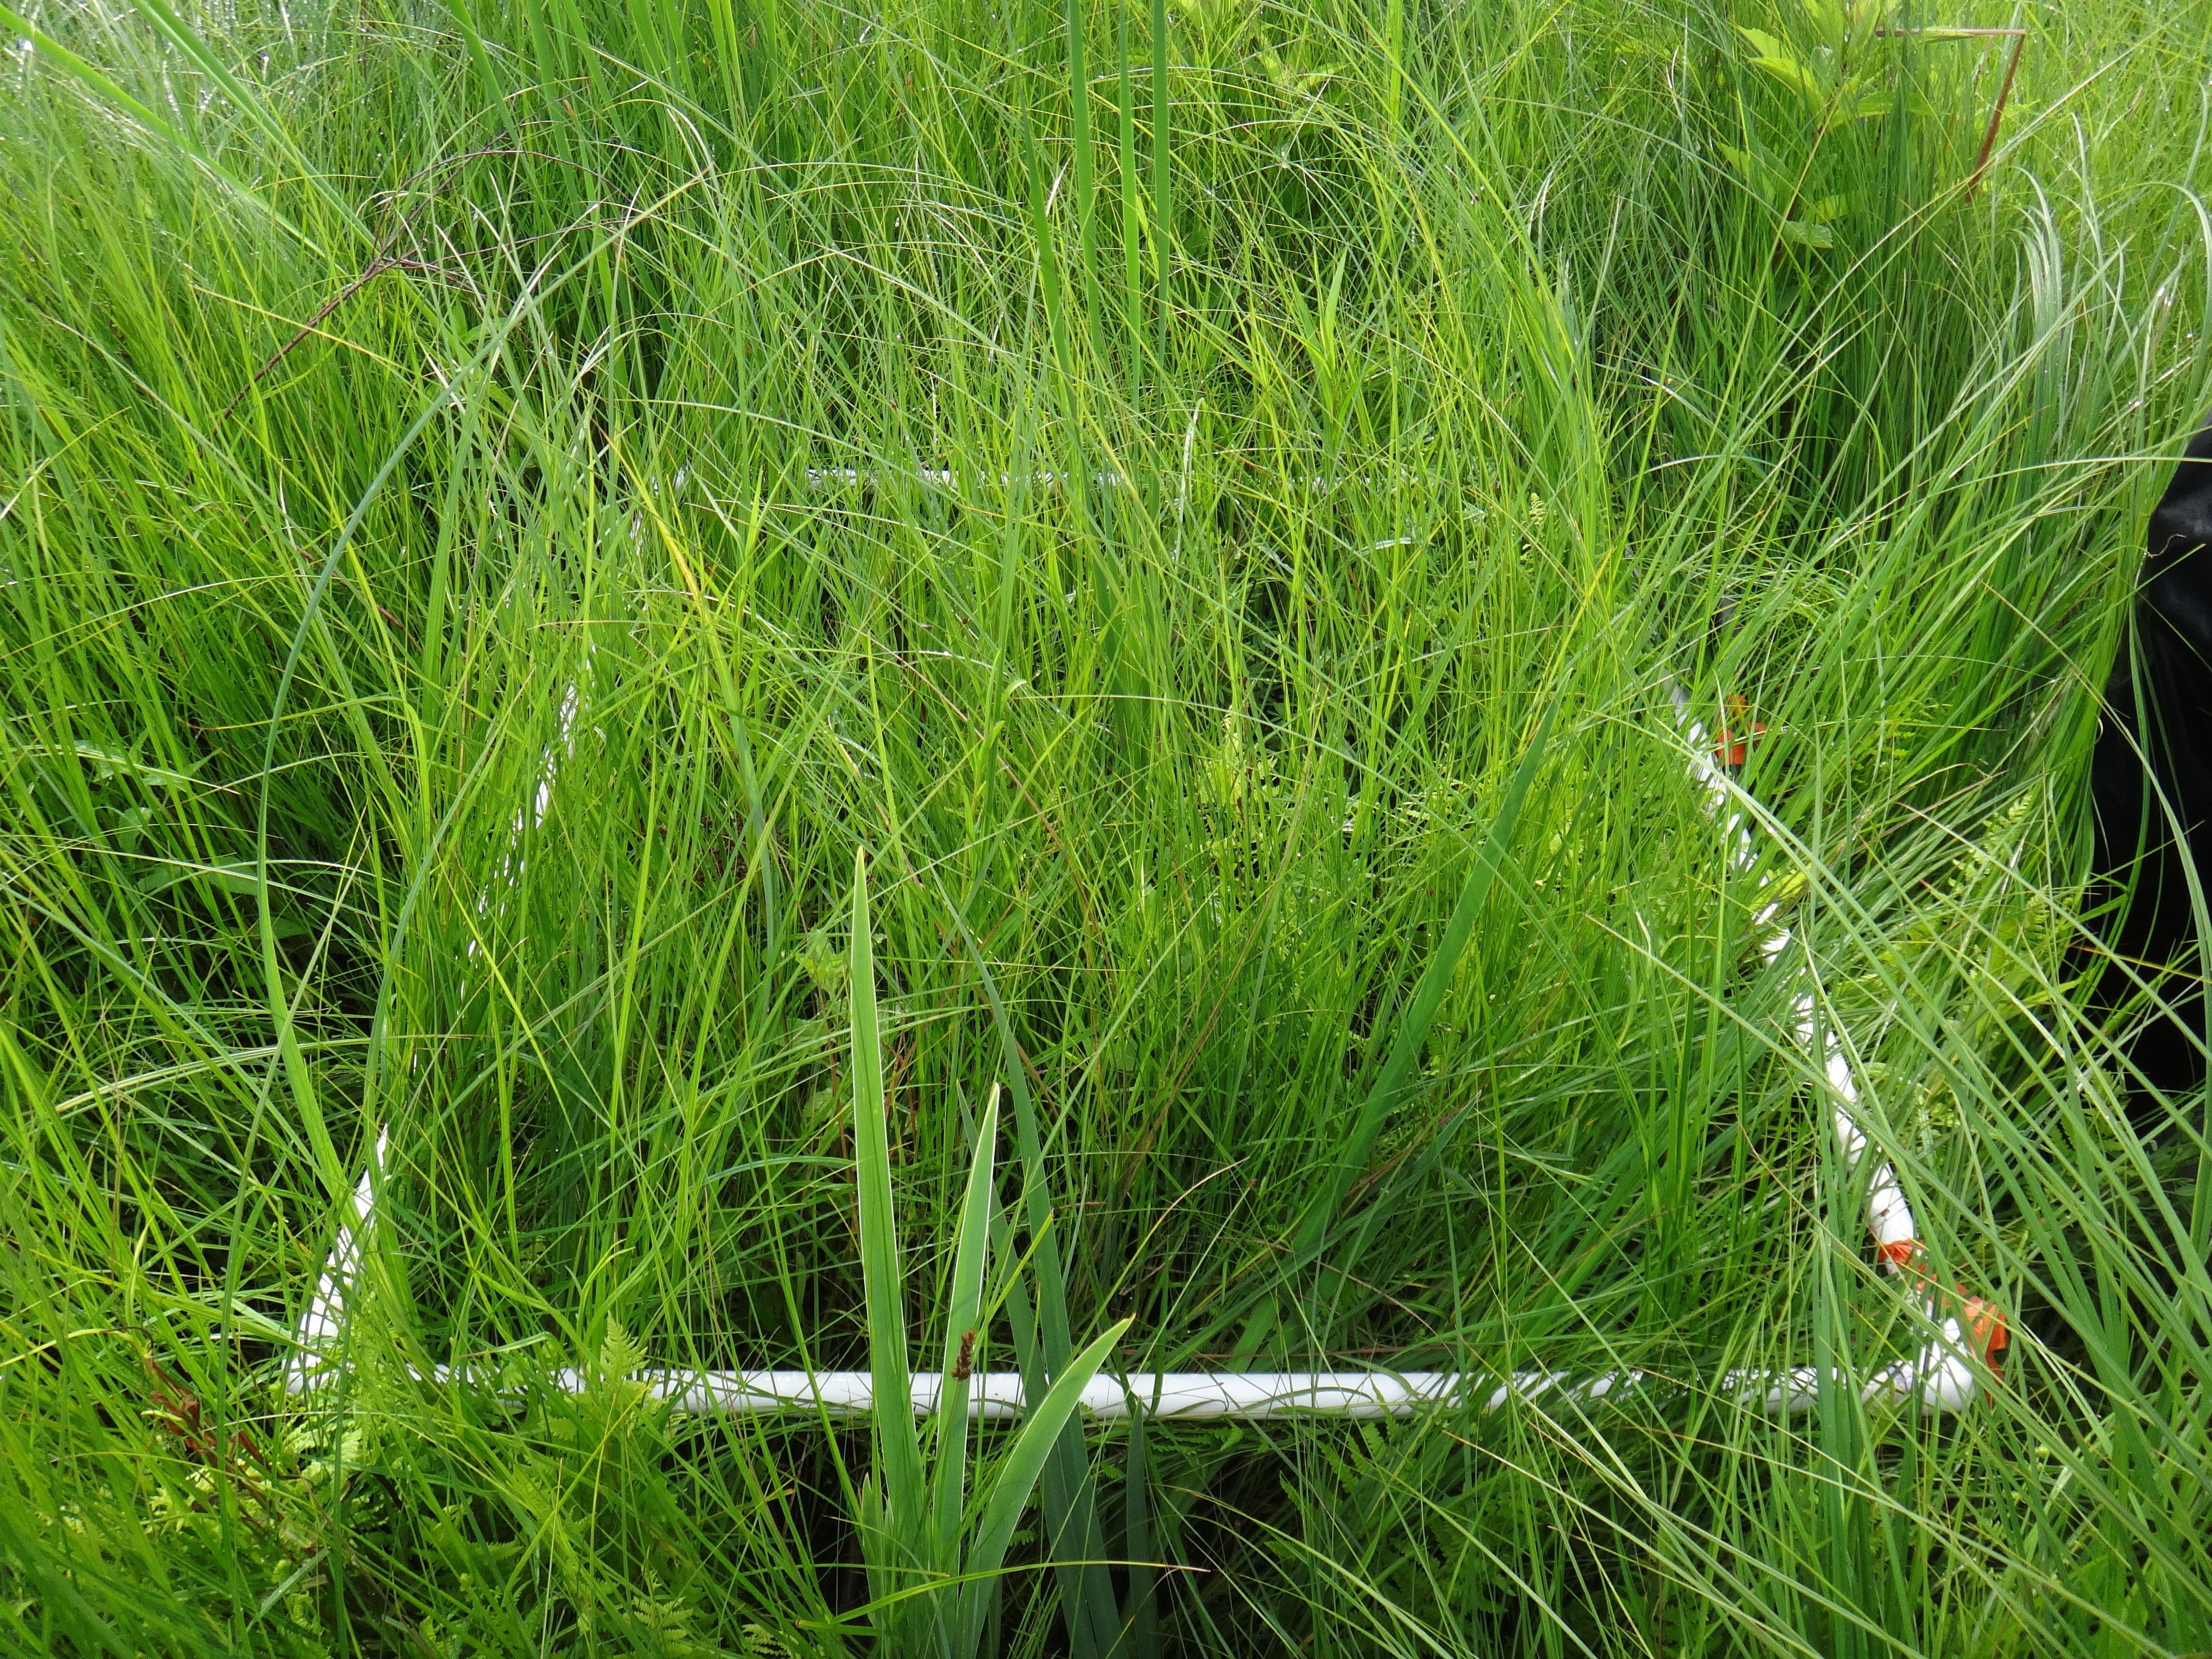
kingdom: Plantae
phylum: Tracheophyta
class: Magnoliopsida
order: Ericales
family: Primulaceae
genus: Lysimachia
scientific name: Lysimachia thyrsiflora
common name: Tufted loosestrife
